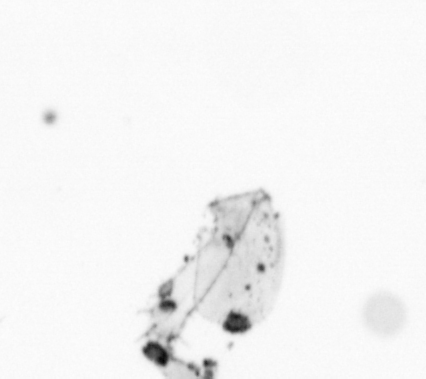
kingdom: Chromista
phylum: Ochrophyta
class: Bacillariophyceae
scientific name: Bacillariophyceae
